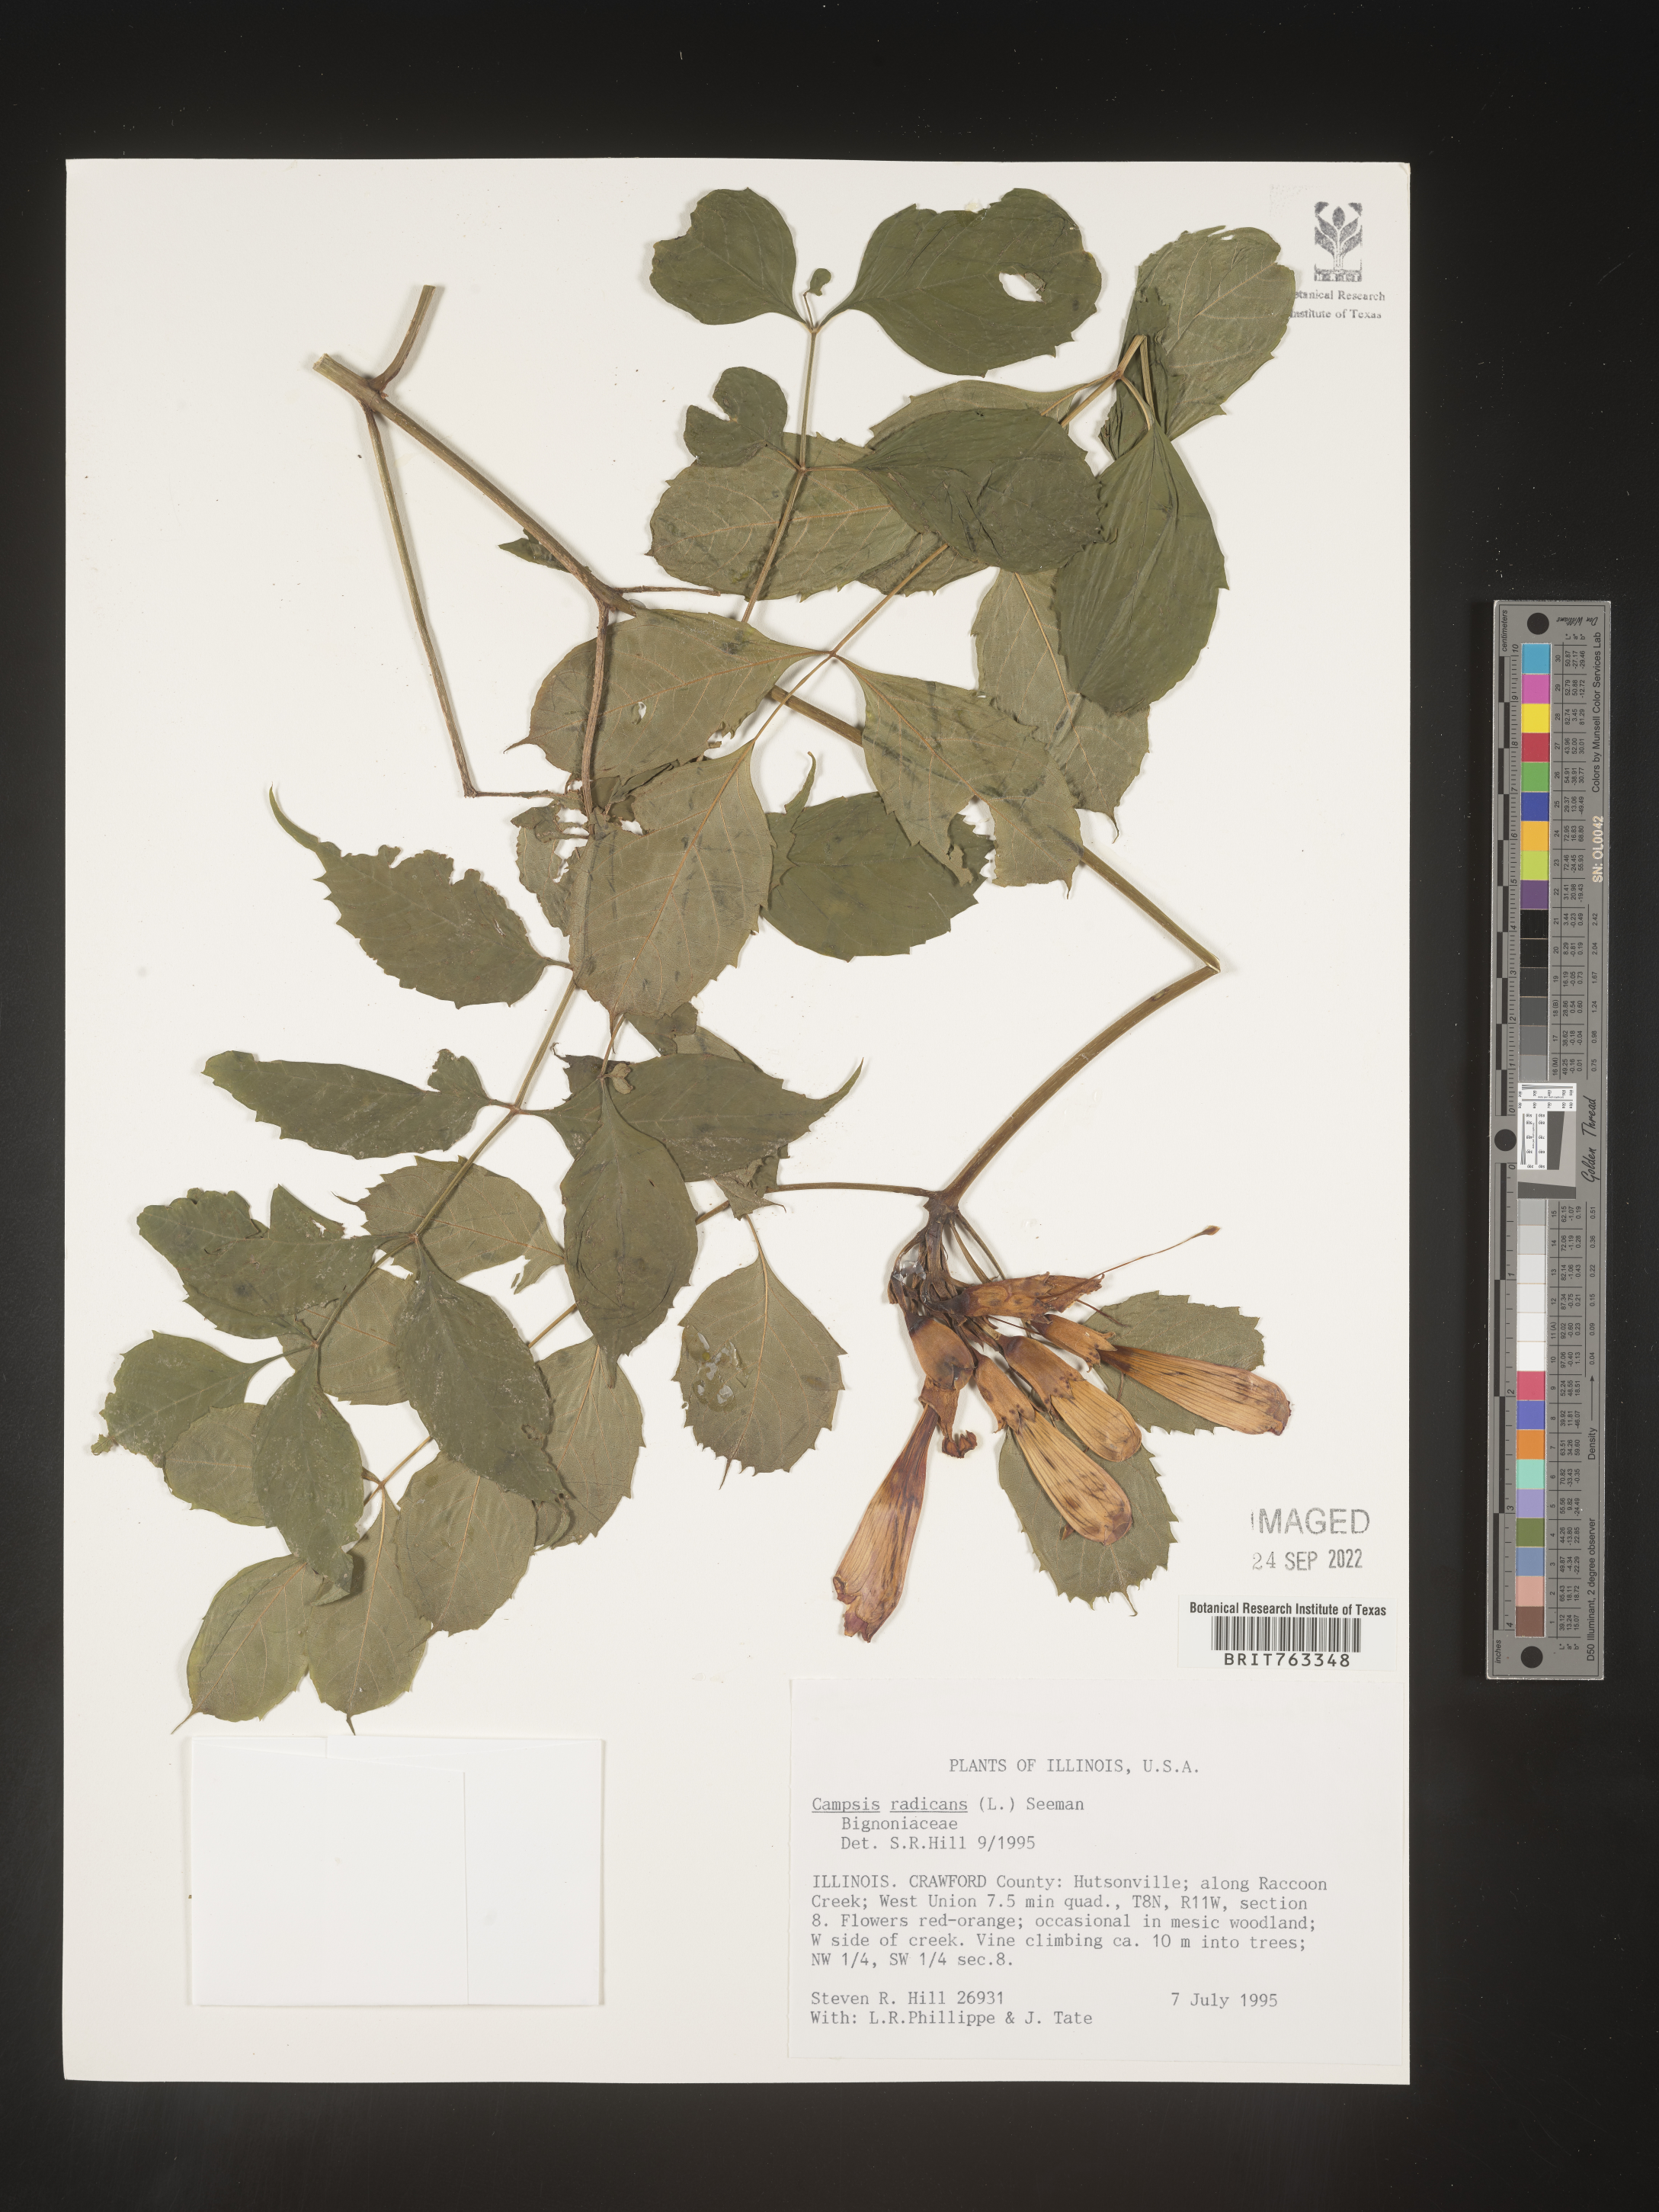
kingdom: Plantae
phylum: Tracheophyta
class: Magnoliopsida
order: Lamiales
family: Bignoniaceae
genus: Campsis
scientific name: Campsis radicans
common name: Trumpet-creeper
